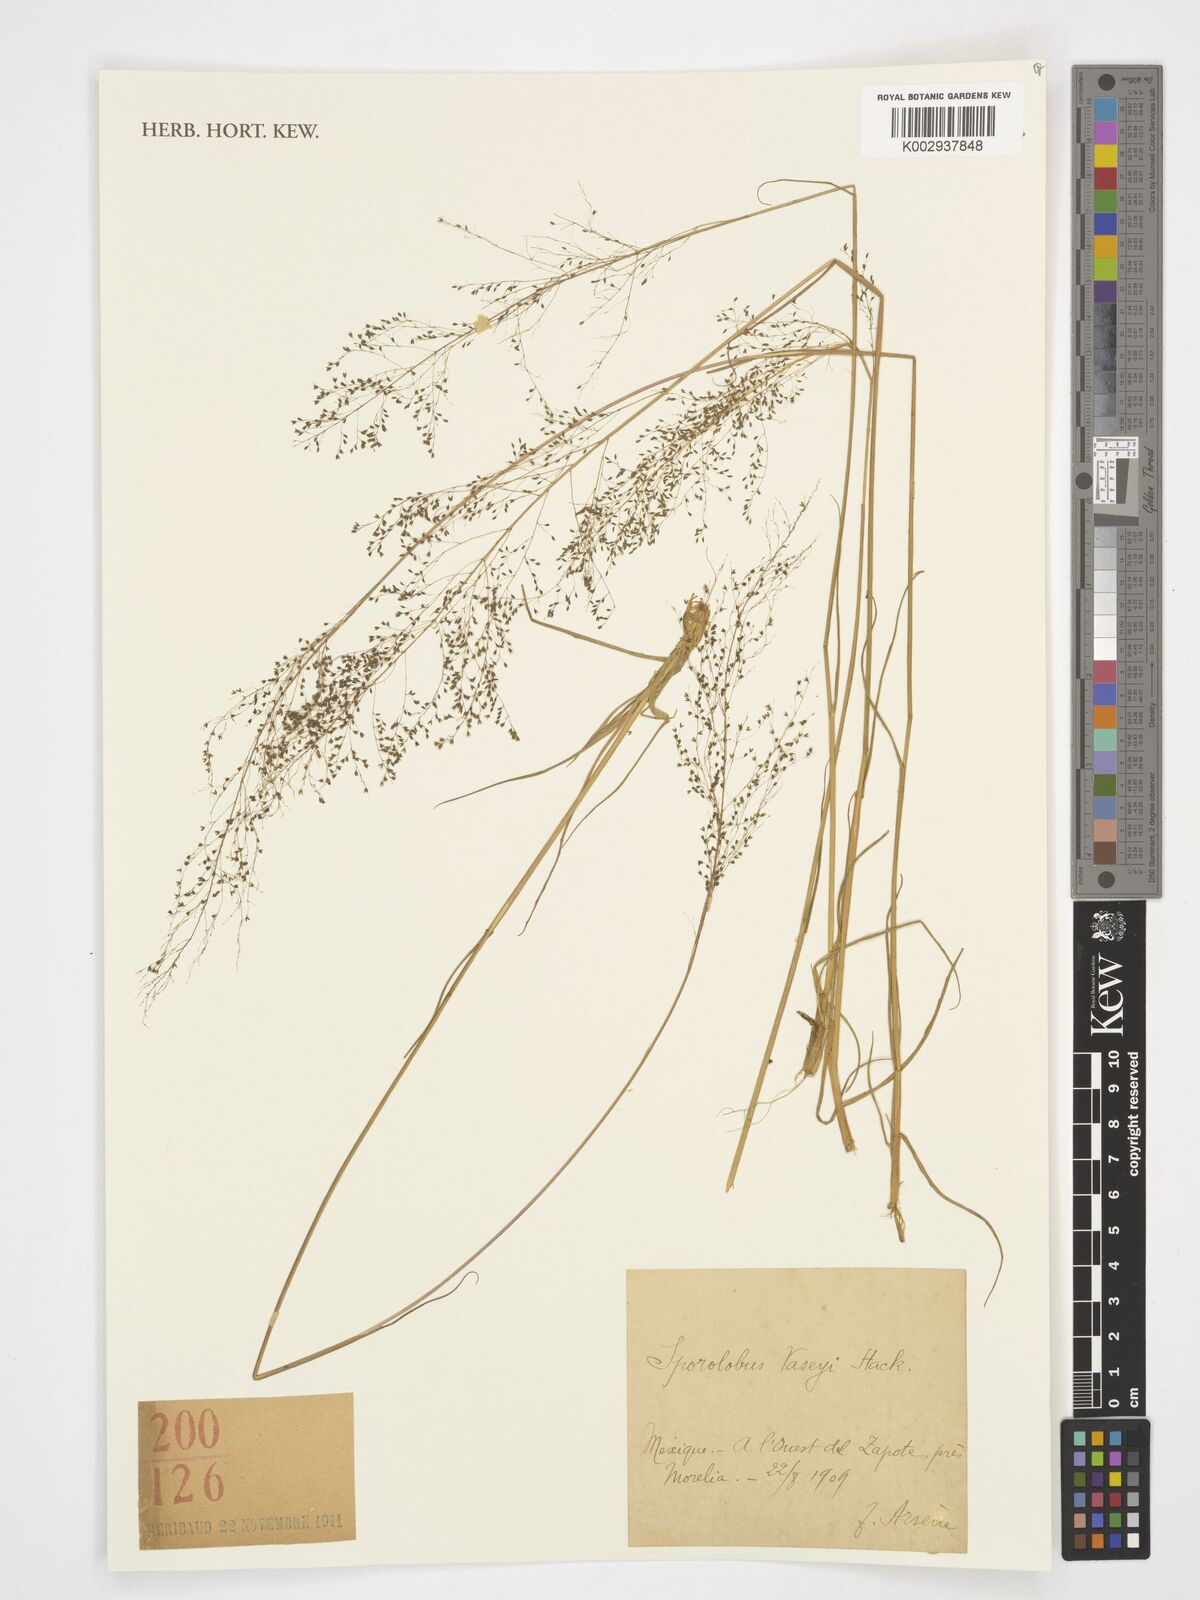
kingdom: Plantae
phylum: Tracheophyta
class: Liliopsida
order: Poales
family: Poaceae
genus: Sporobolus
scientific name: Sporobolus vaseyi
